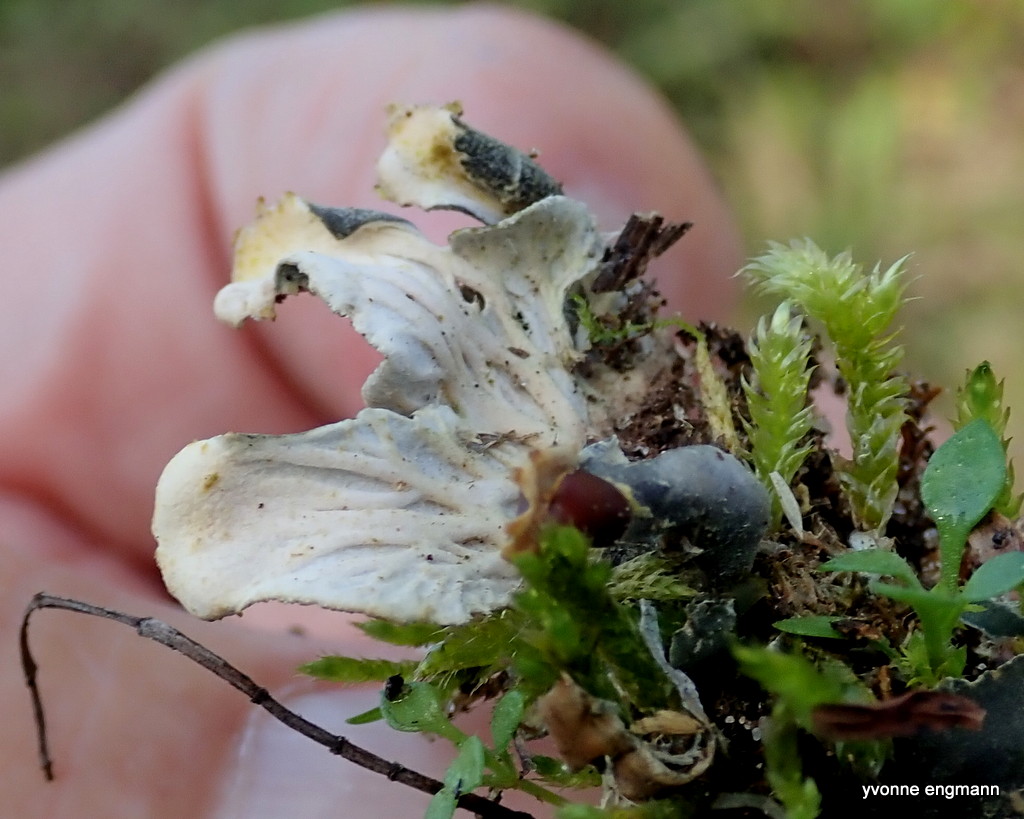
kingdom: Fungi
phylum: Ascomycota
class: Lecanoromycetes
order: Peltigerales
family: Peltigeraceae
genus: Peltigera
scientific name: Peltigera didactyla
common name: liden skjoldlav
